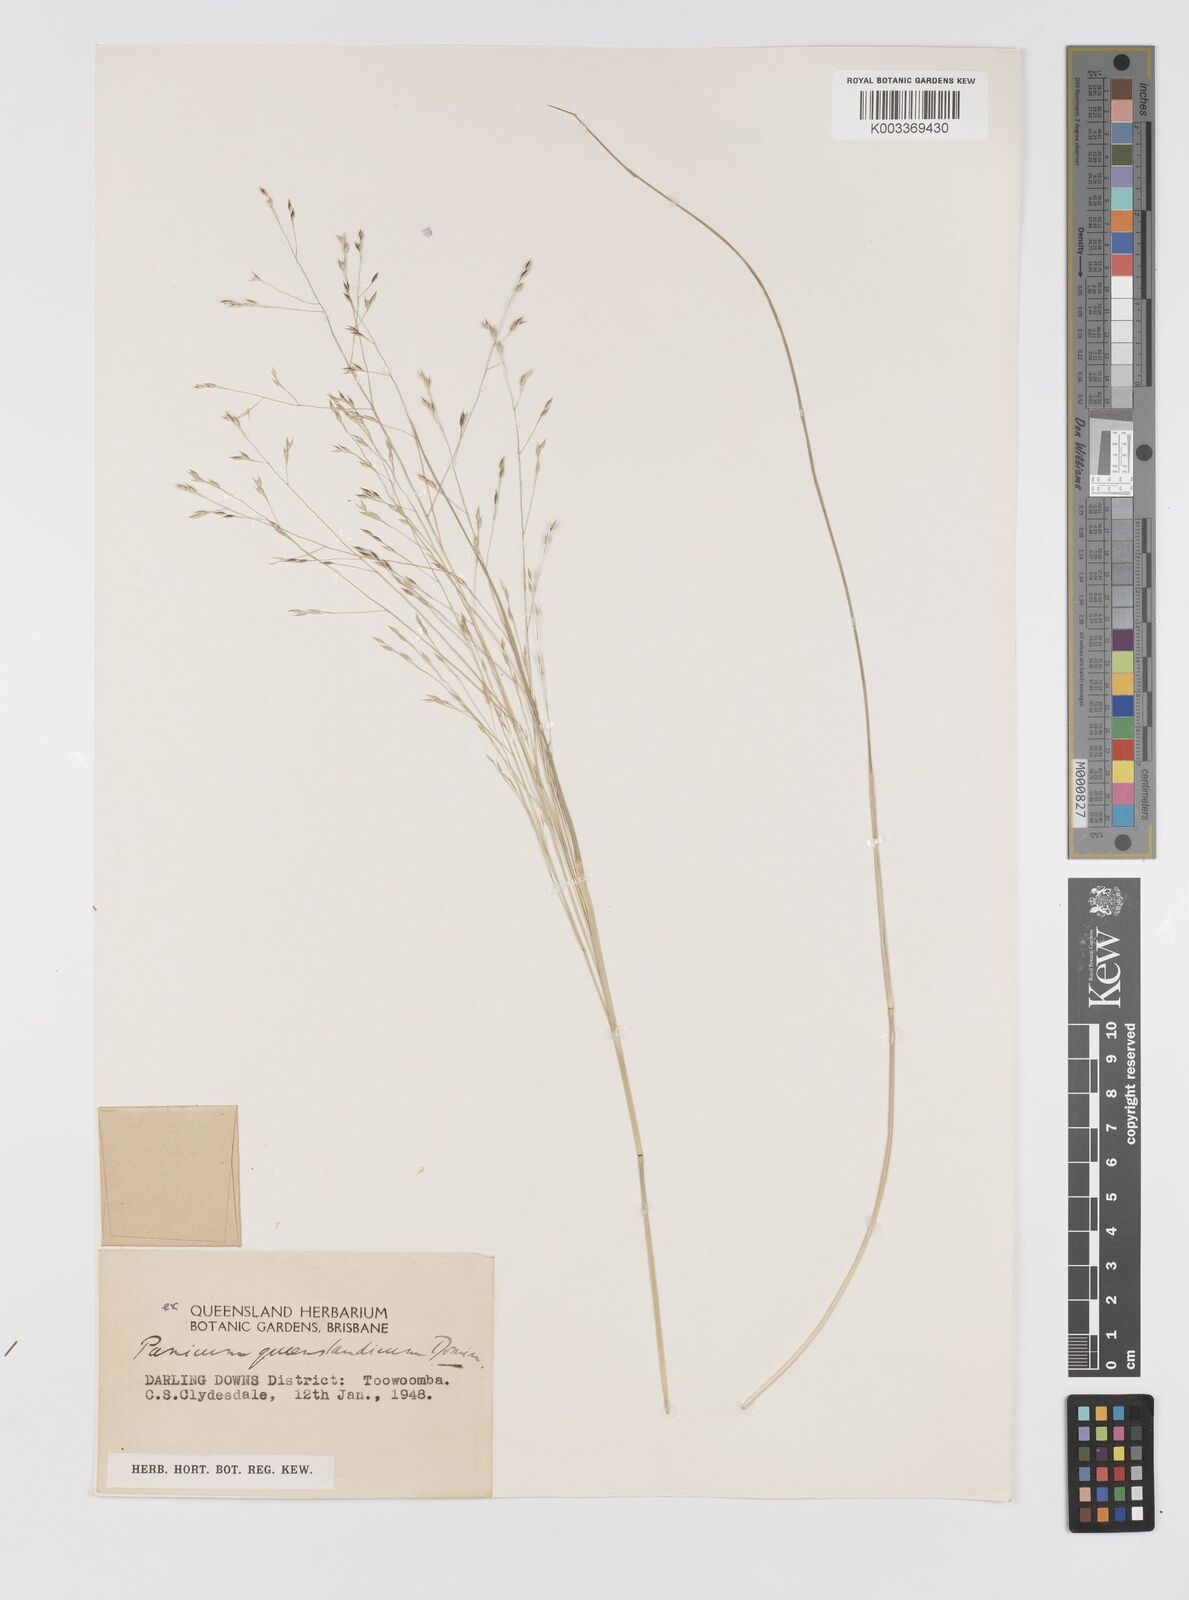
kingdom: Plantae
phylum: Tracheophyta
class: Liliopsida
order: Poales
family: Poaceae
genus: Panicum
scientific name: Panicum queenslandicum
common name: Yabila grass
